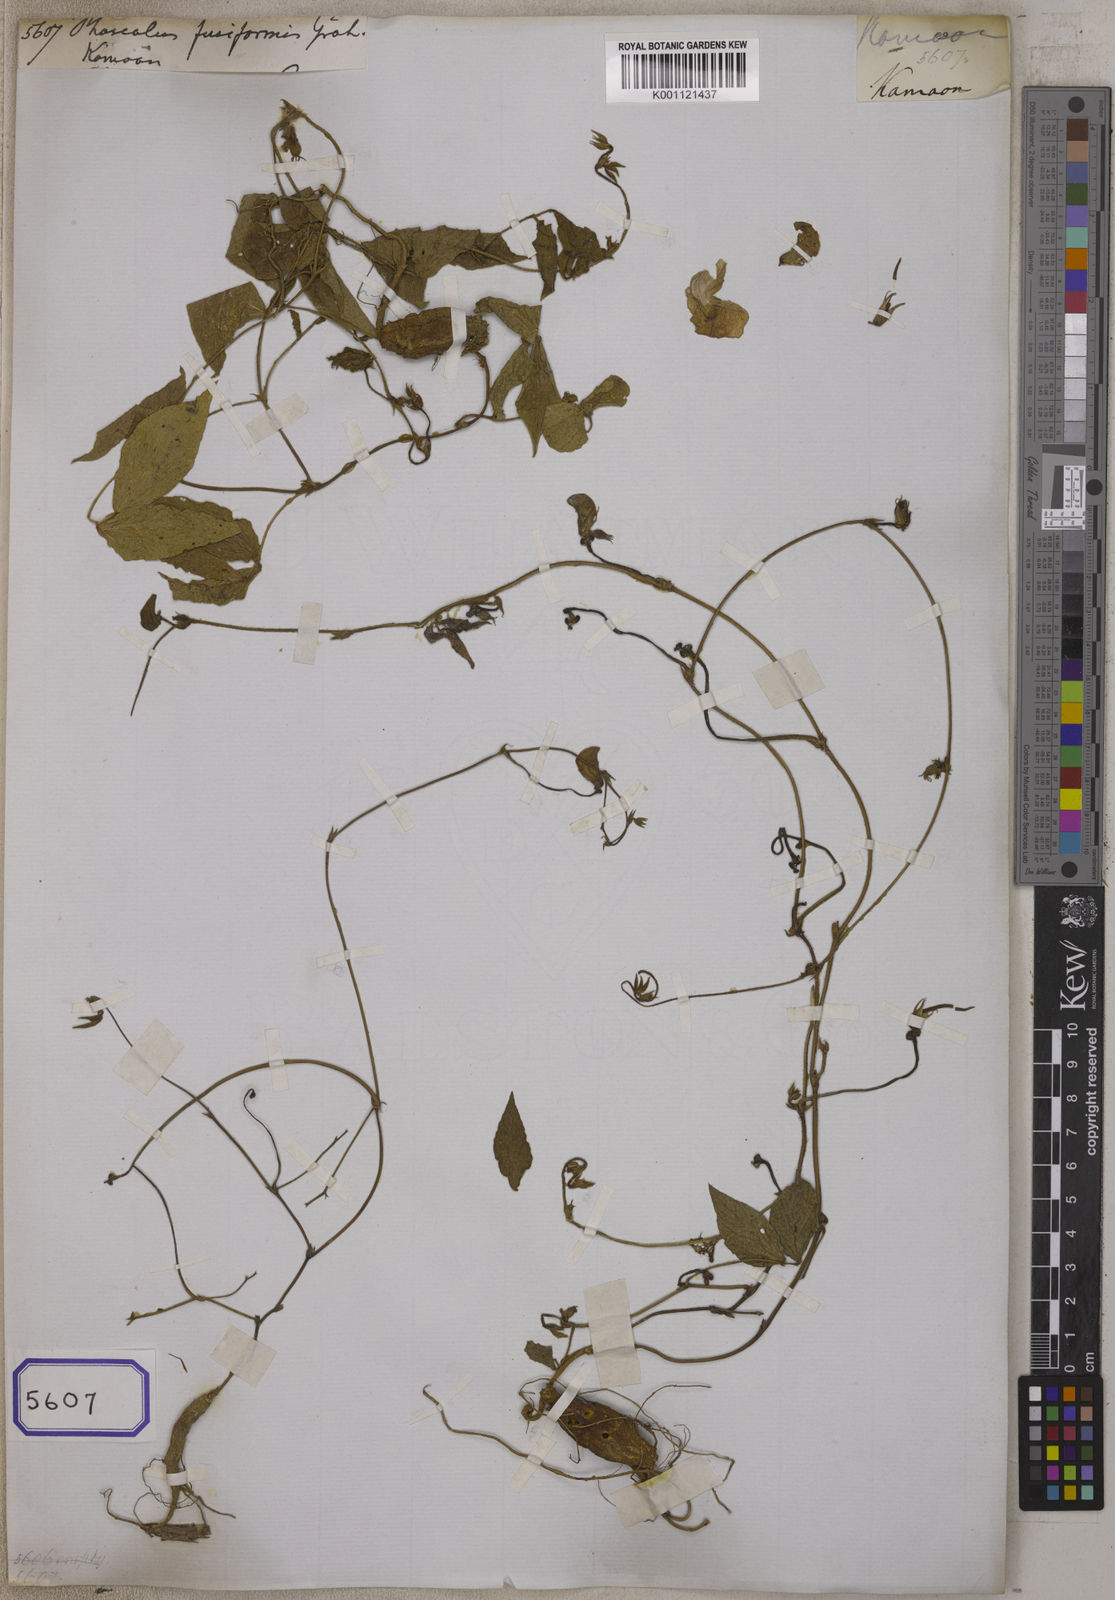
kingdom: Plantae
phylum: Tracheophyta
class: Magnoliopsida
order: Fabales
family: Fabaceae
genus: Vigna
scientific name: Vigna vexillata
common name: Zombi pea
